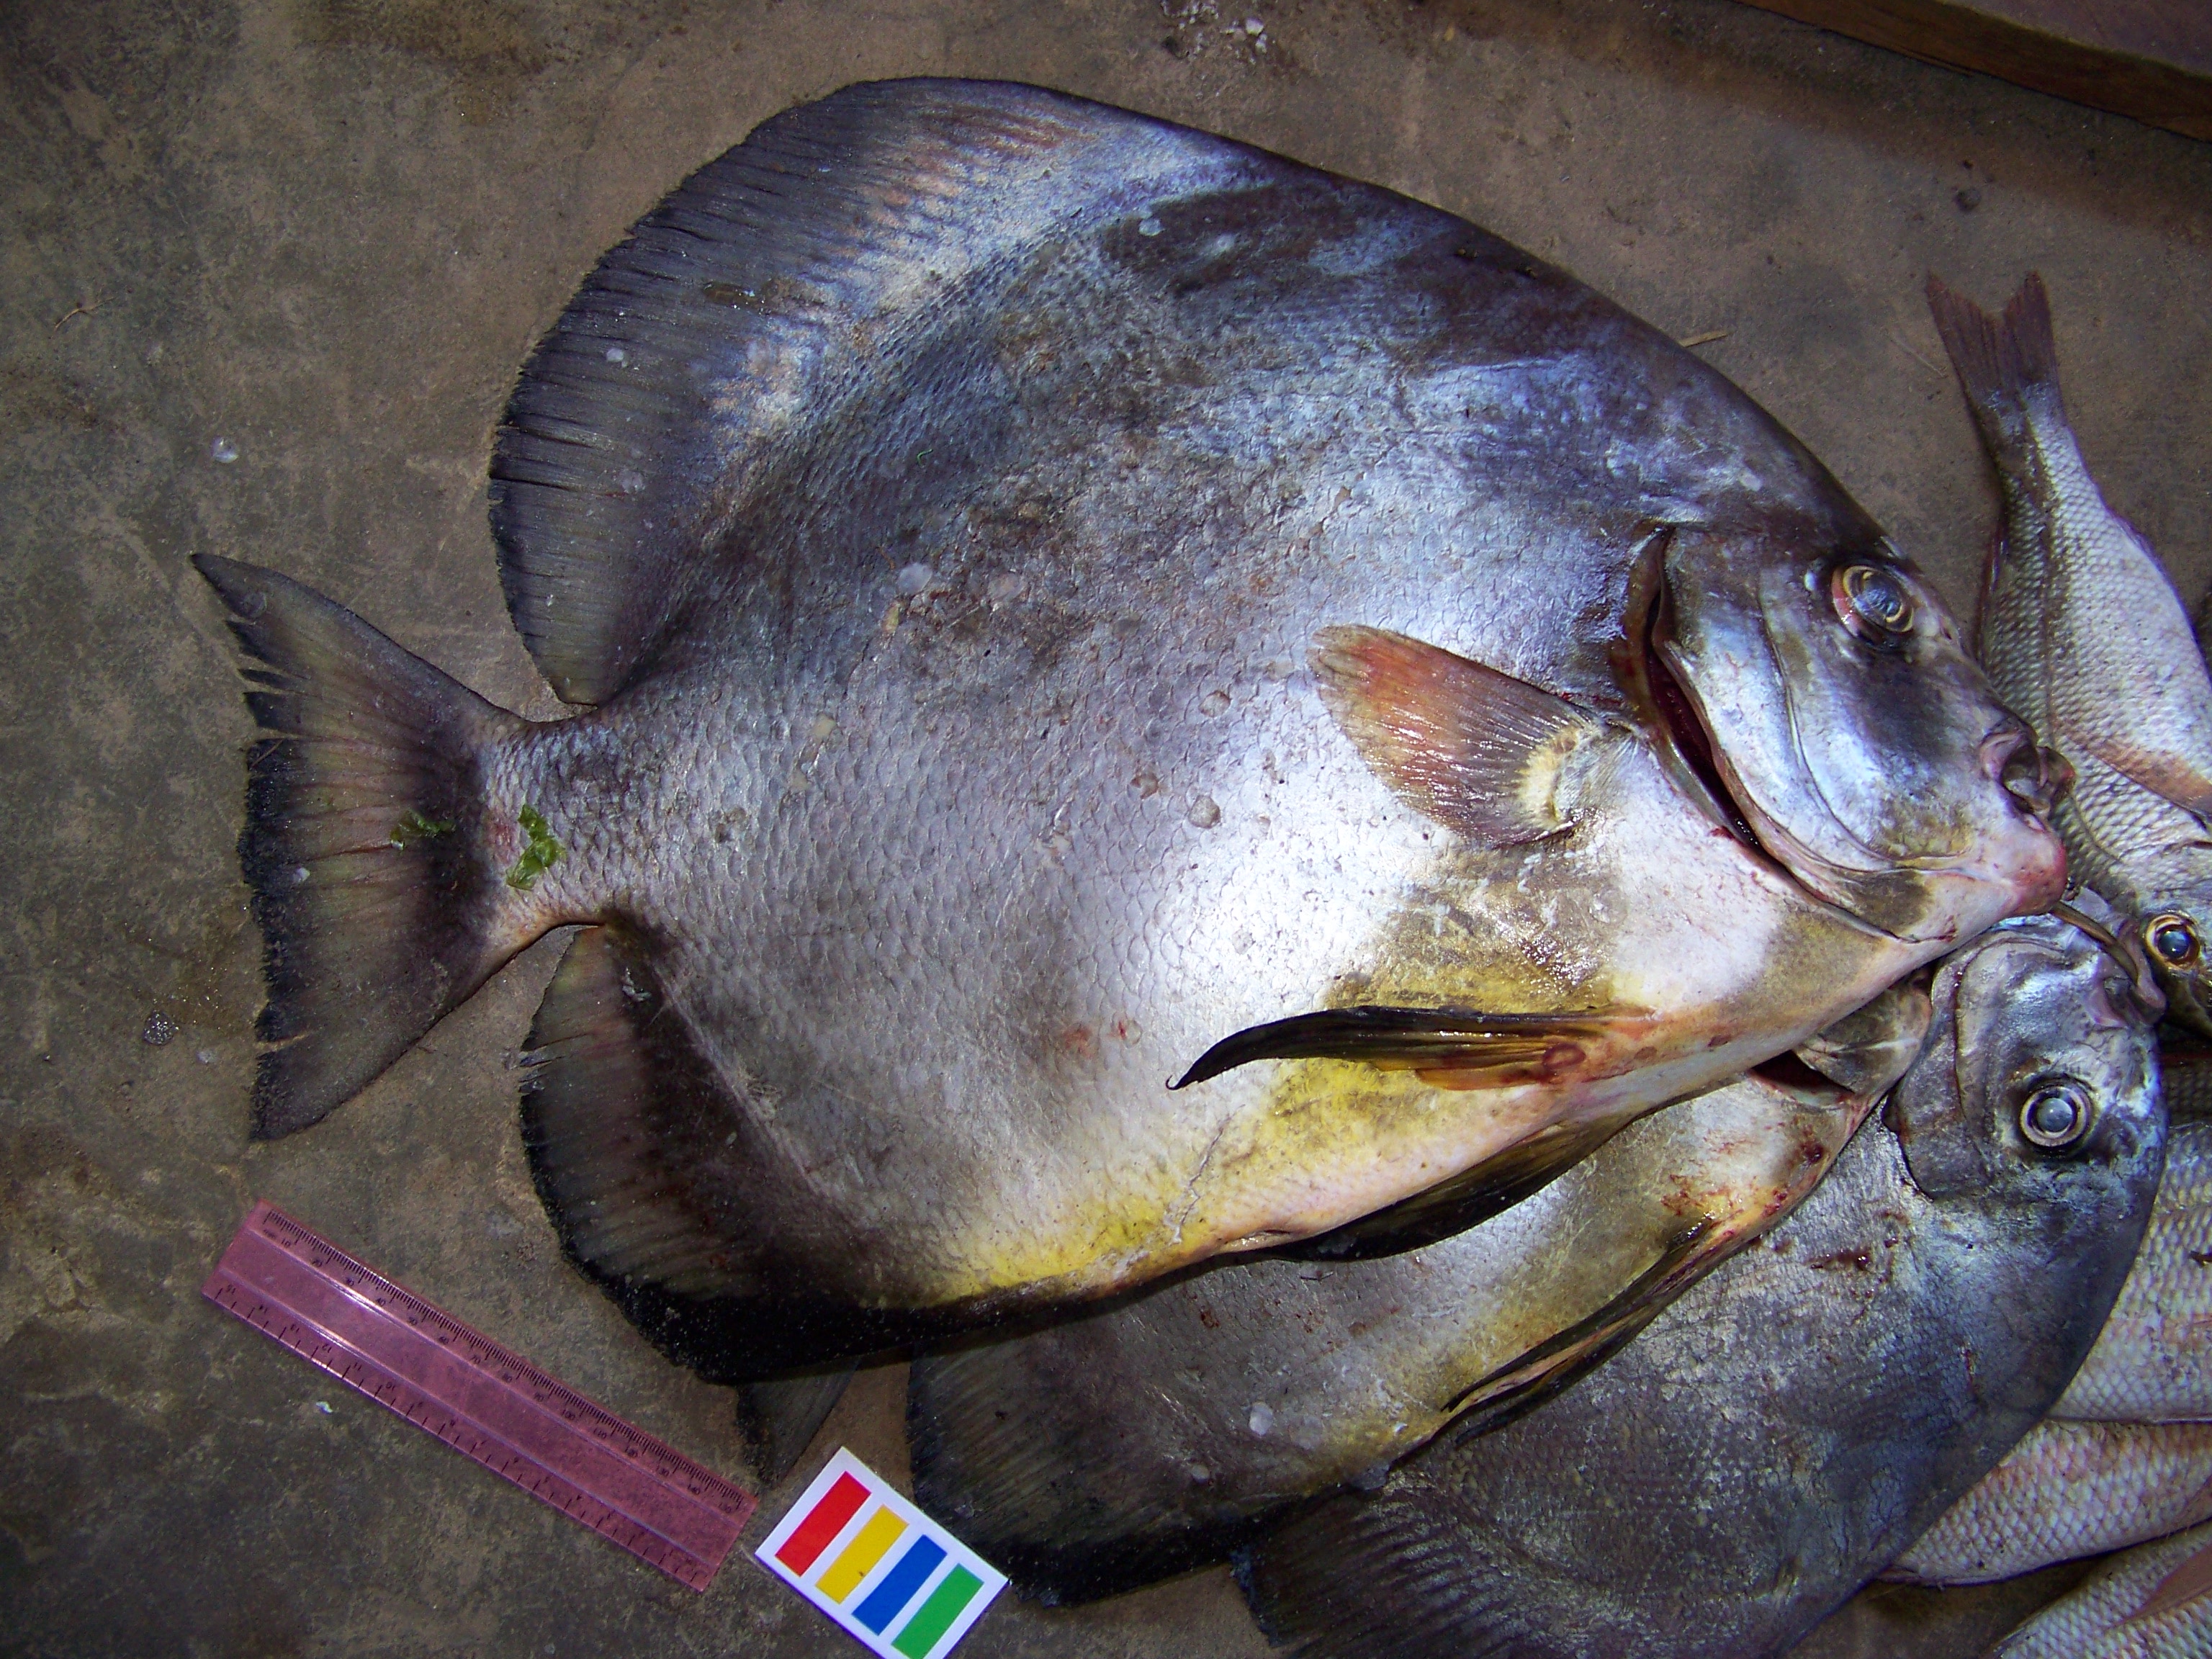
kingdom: Animalia
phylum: Chordata
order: Perciformes
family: Ephippidae
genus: Platax
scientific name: Platax orbicularis
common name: Batfish
